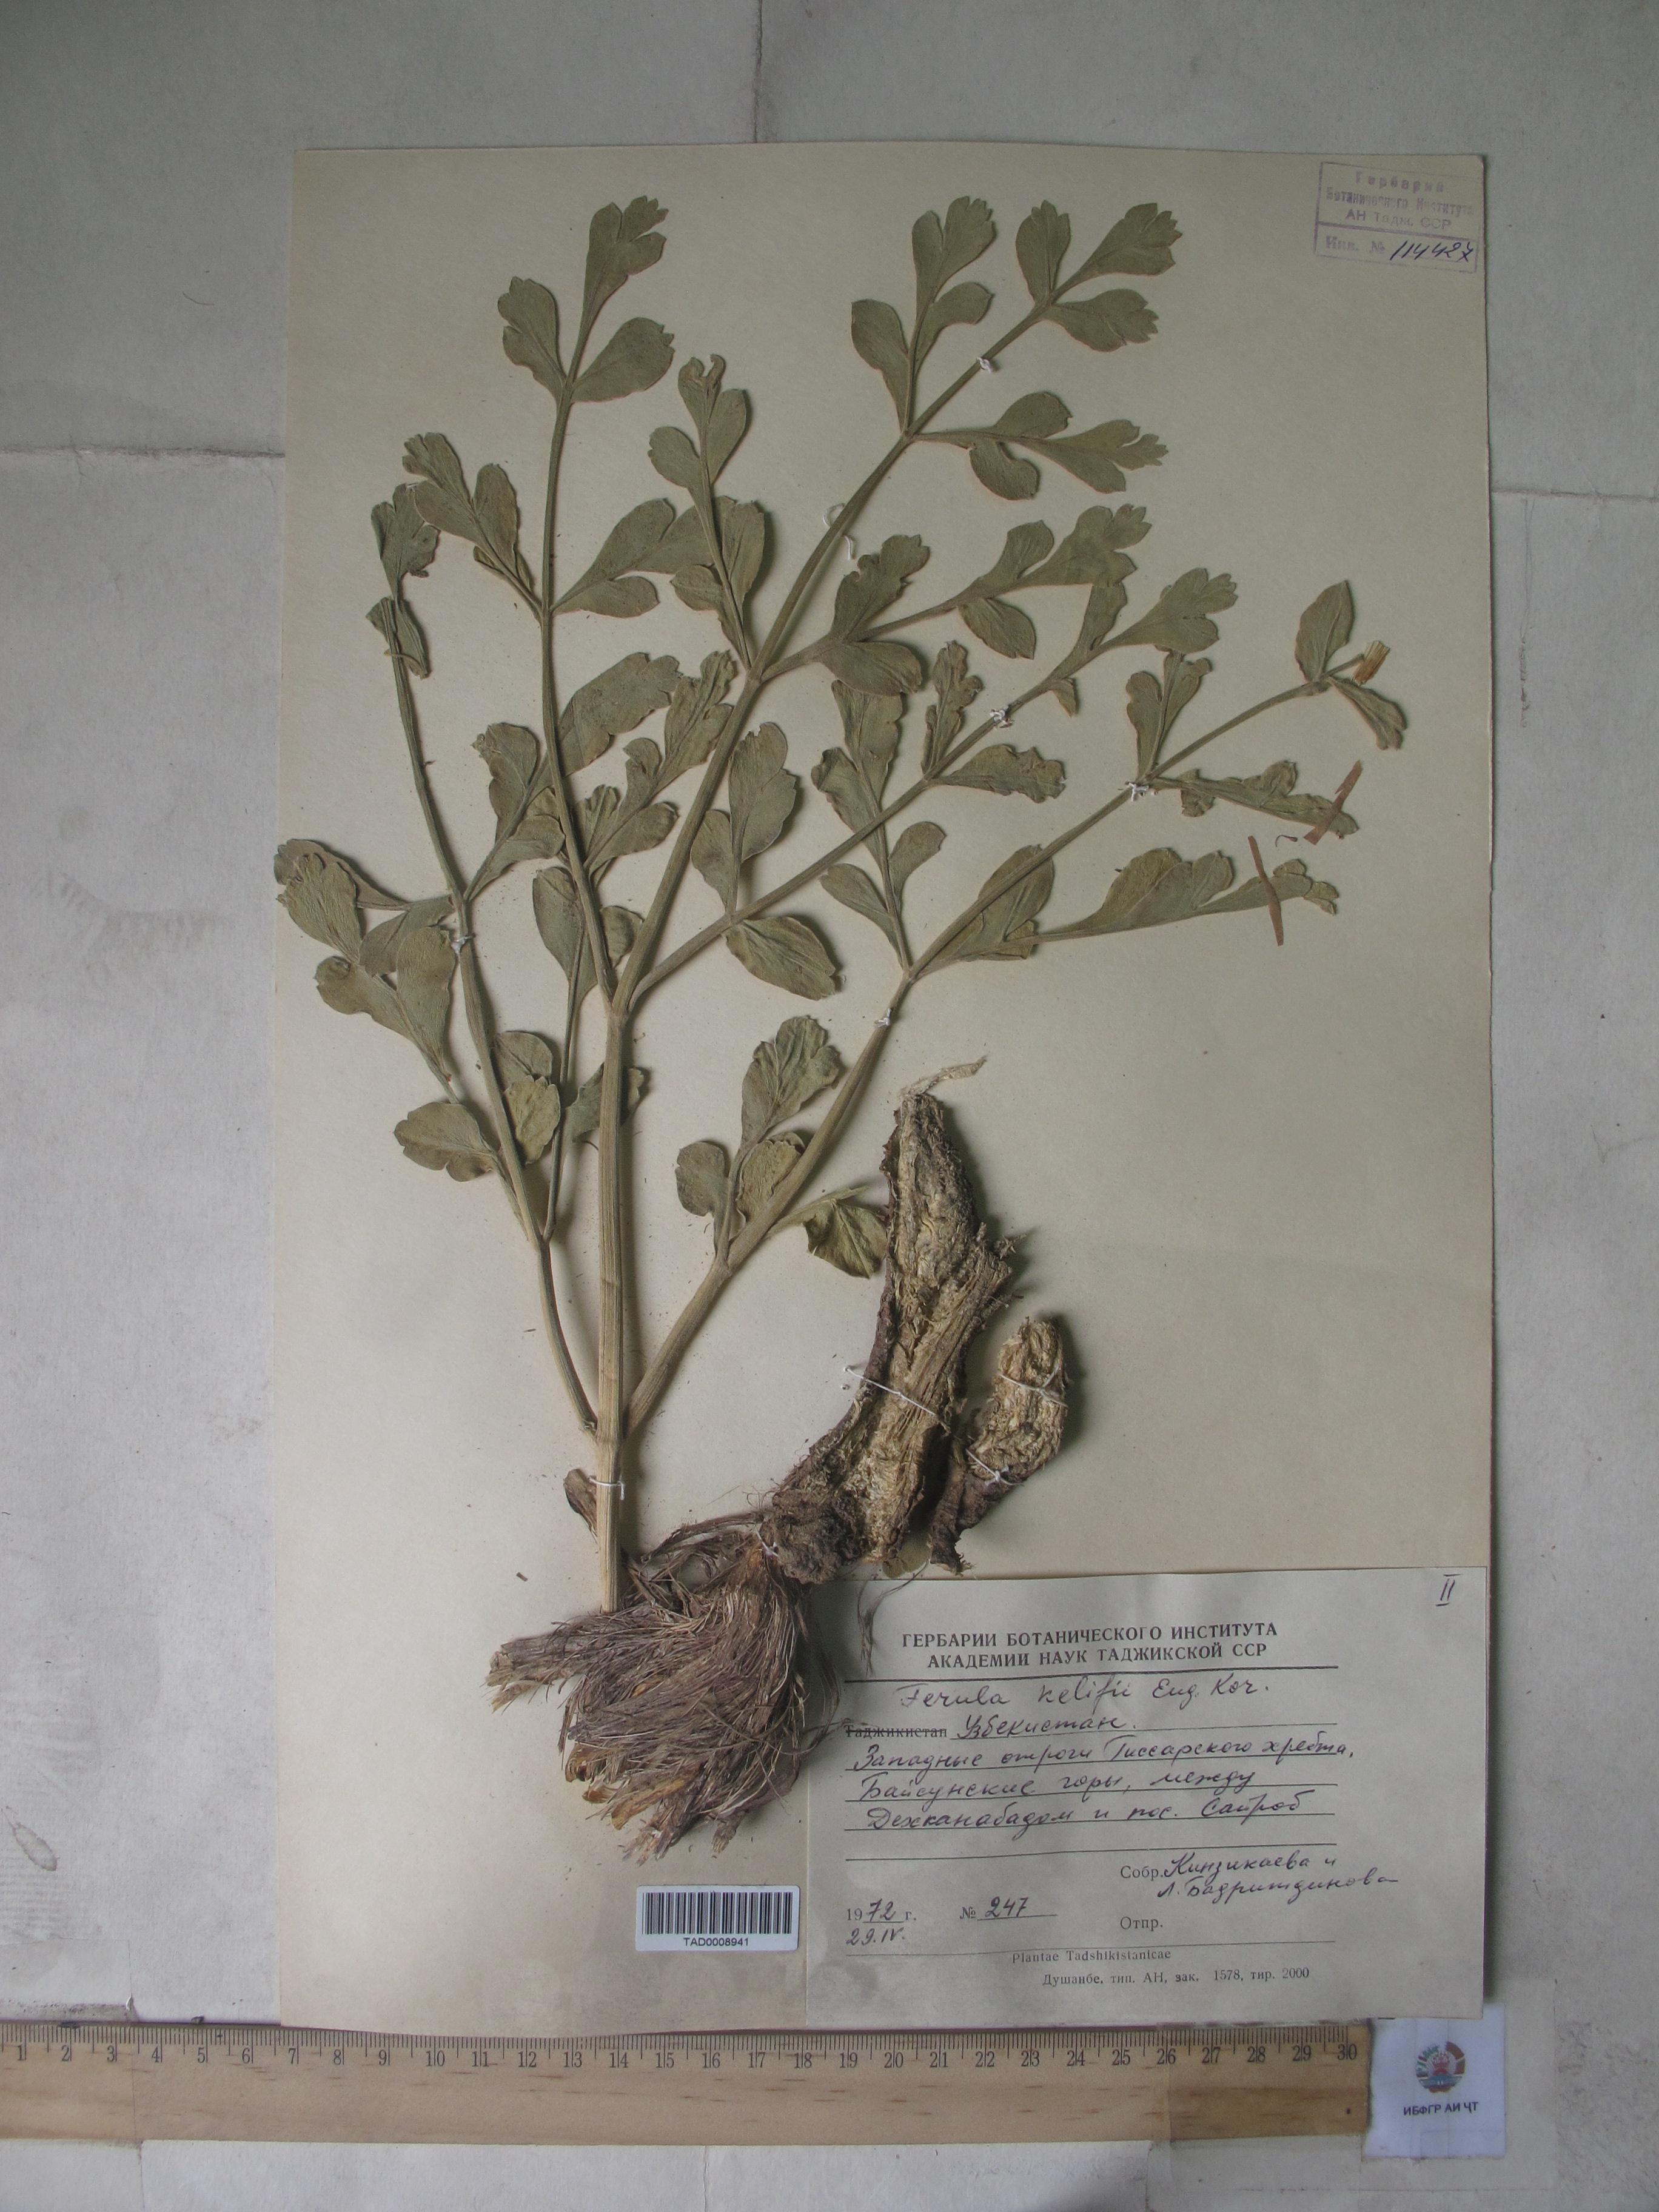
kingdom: Plantae
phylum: Tracheophyta
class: Magnoliopsida
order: Apiales
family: Apiaceae
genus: Ferula
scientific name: Ferula kelifi
